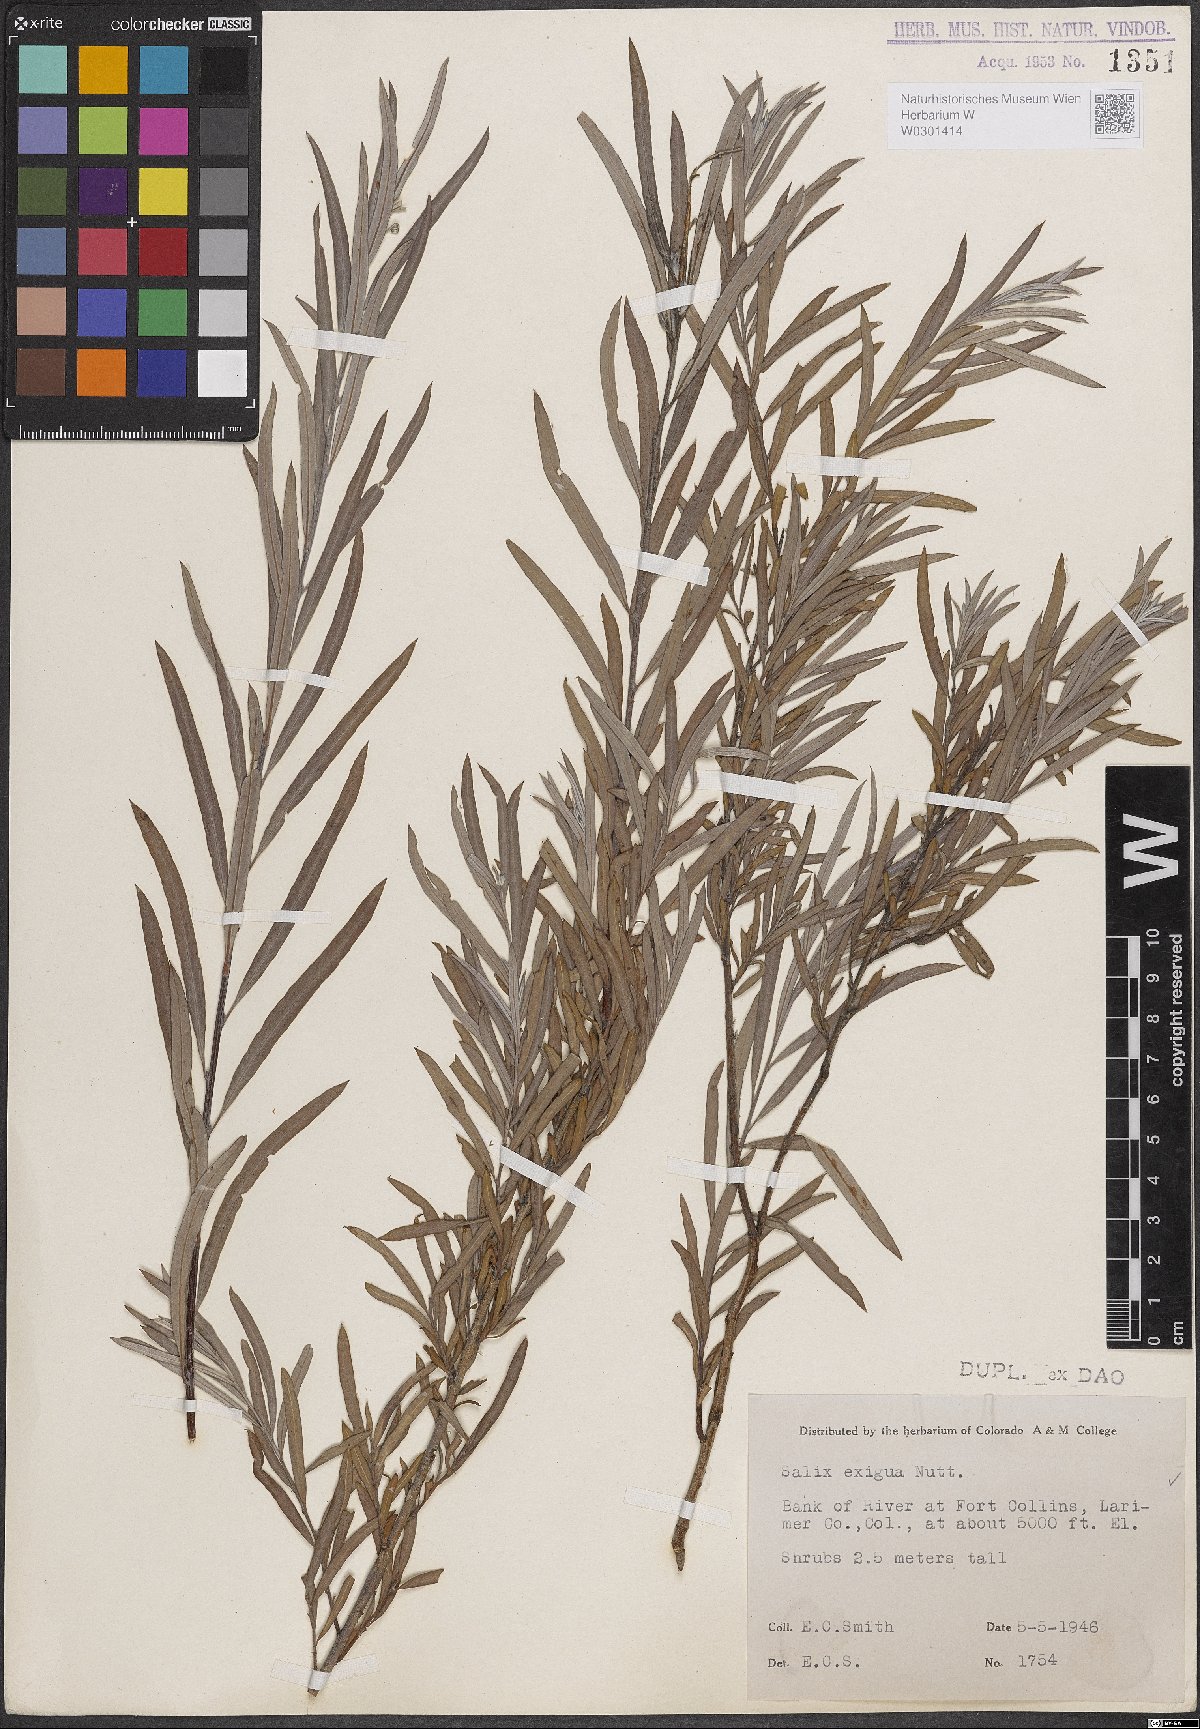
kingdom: Plantae
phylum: Tracheophyta
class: Magnoliopsida
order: Malpighiales
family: Salicaceae
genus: Salix
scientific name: Salix exigua
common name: Coyote willow
